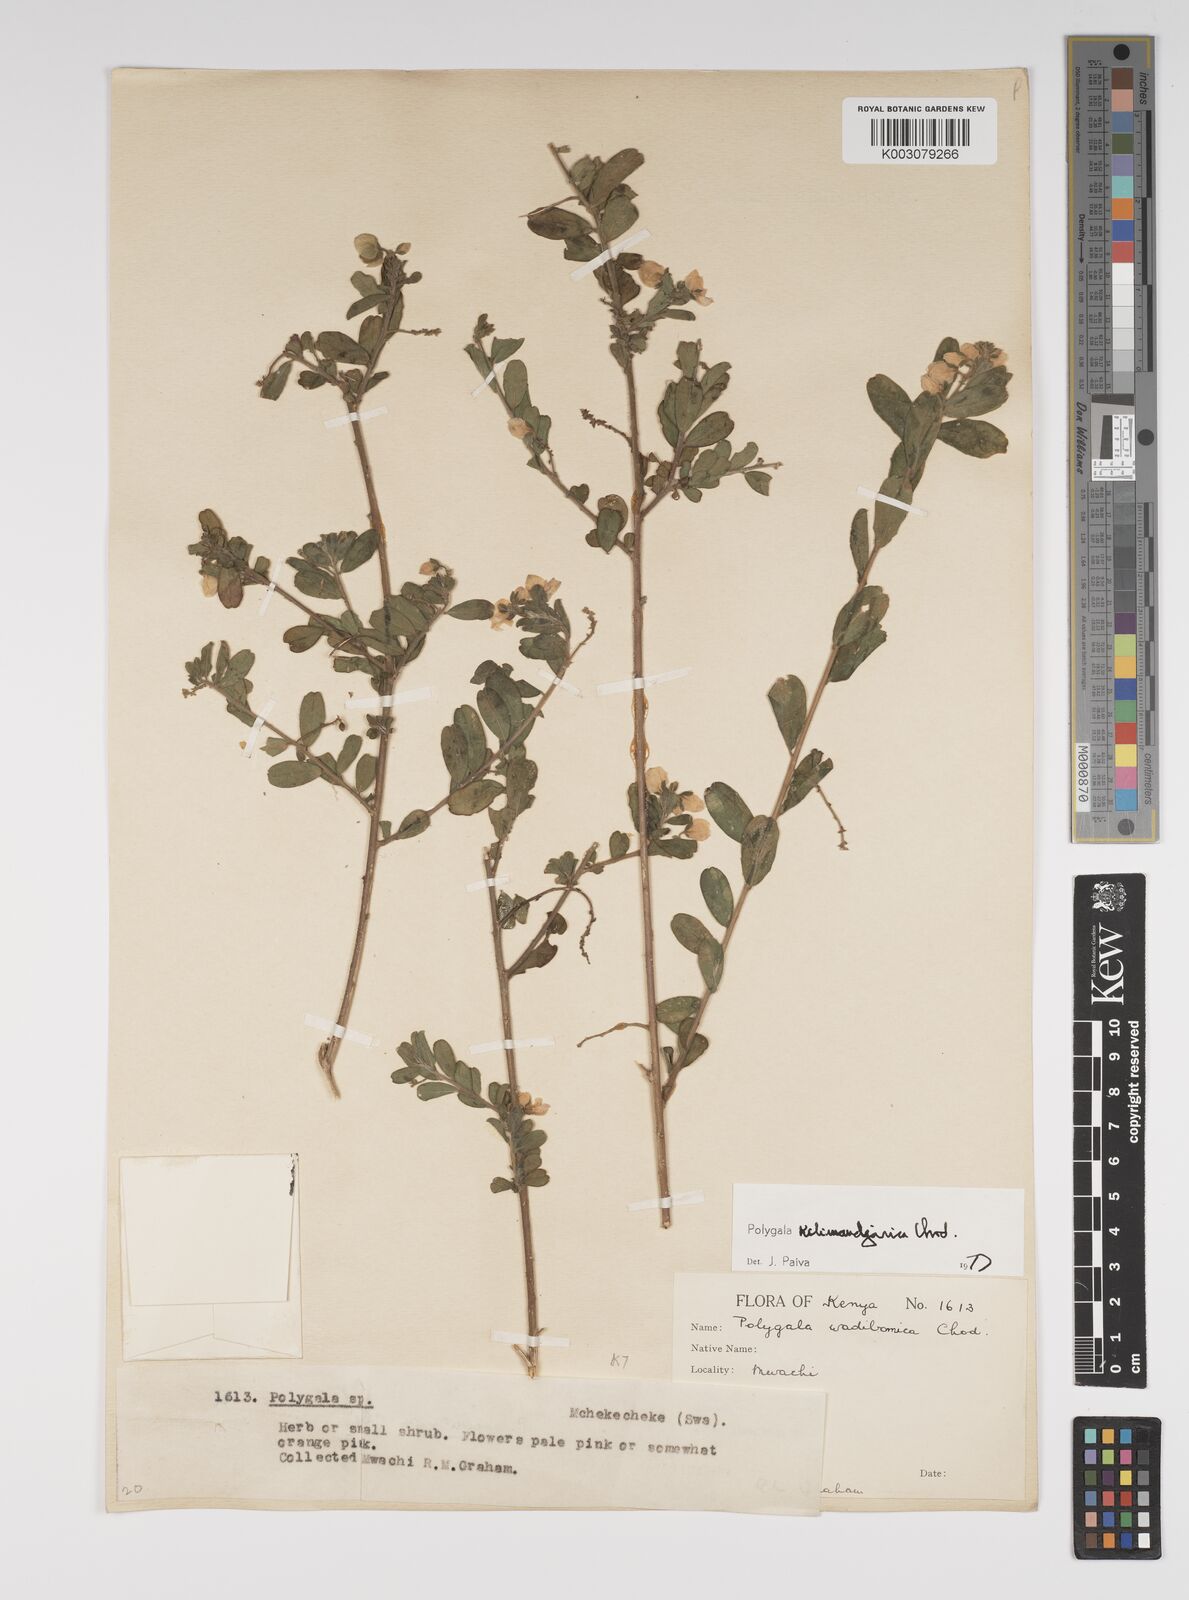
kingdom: Plantae
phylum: Tracheophyta
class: Magnoliopsida
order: Fabales
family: Polygalaceae
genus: Polygala
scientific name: Polygala kilimandjarica
